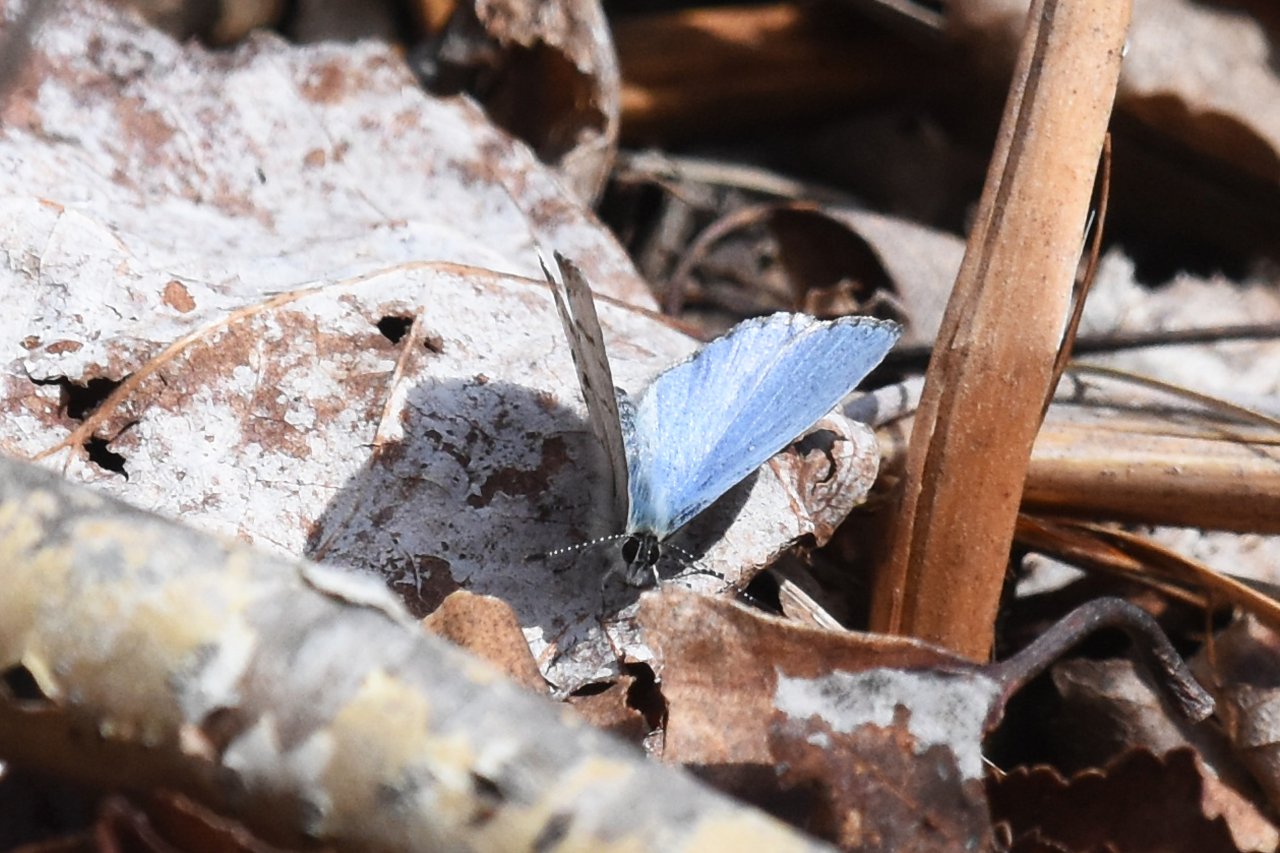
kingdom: Animalia
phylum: Arthropoda
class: Insecta
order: Lepidoptera
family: Lycaenidae
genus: Celastrina
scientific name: Celastrina lucia
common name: Northern Spring Azure
